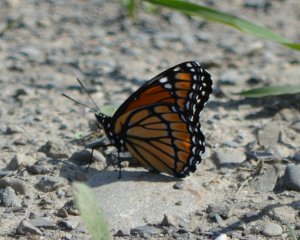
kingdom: Animalia
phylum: Arthropoda
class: Insecta
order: Lepidoptera
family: Nymphalidae
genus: Limenitis
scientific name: Limenitis archippus
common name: Viceroy
